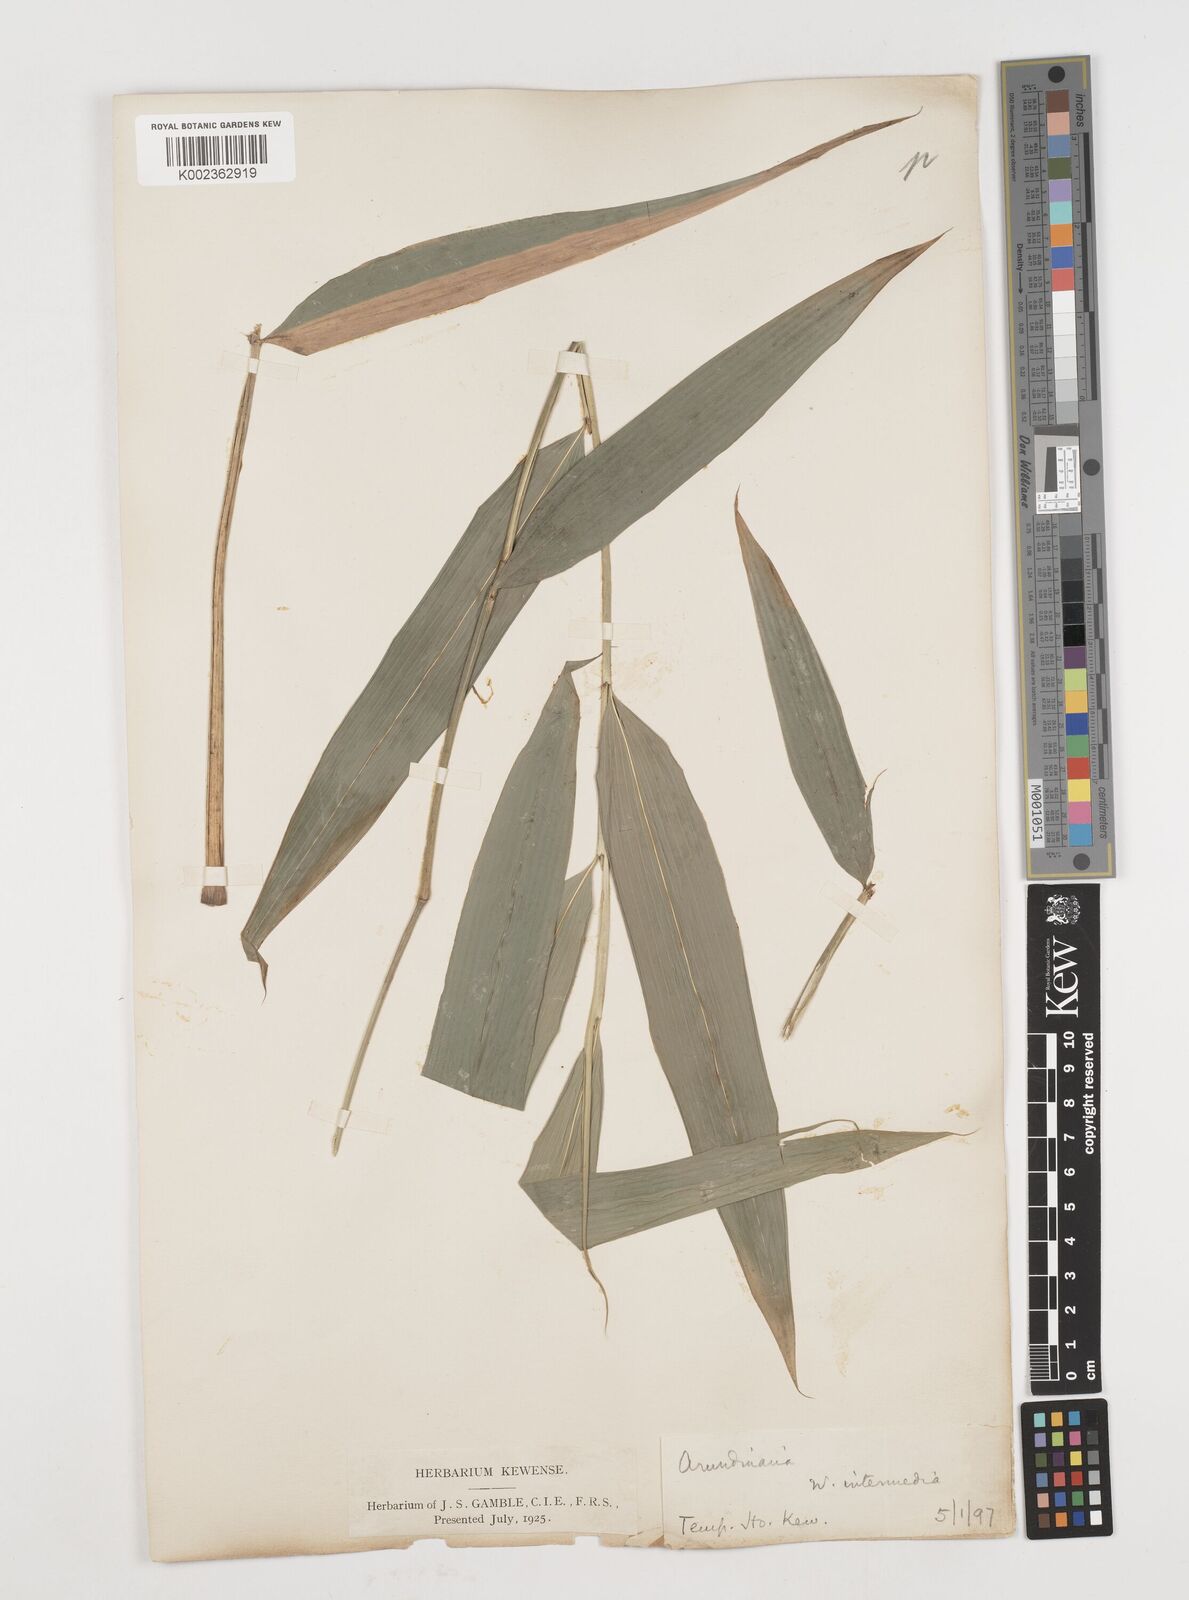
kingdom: Plantae
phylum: Tracheophyta
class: Liliopsida
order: Poales
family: Poaceae
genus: Drepanostachyum
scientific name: Drepanostachyum intermedium
